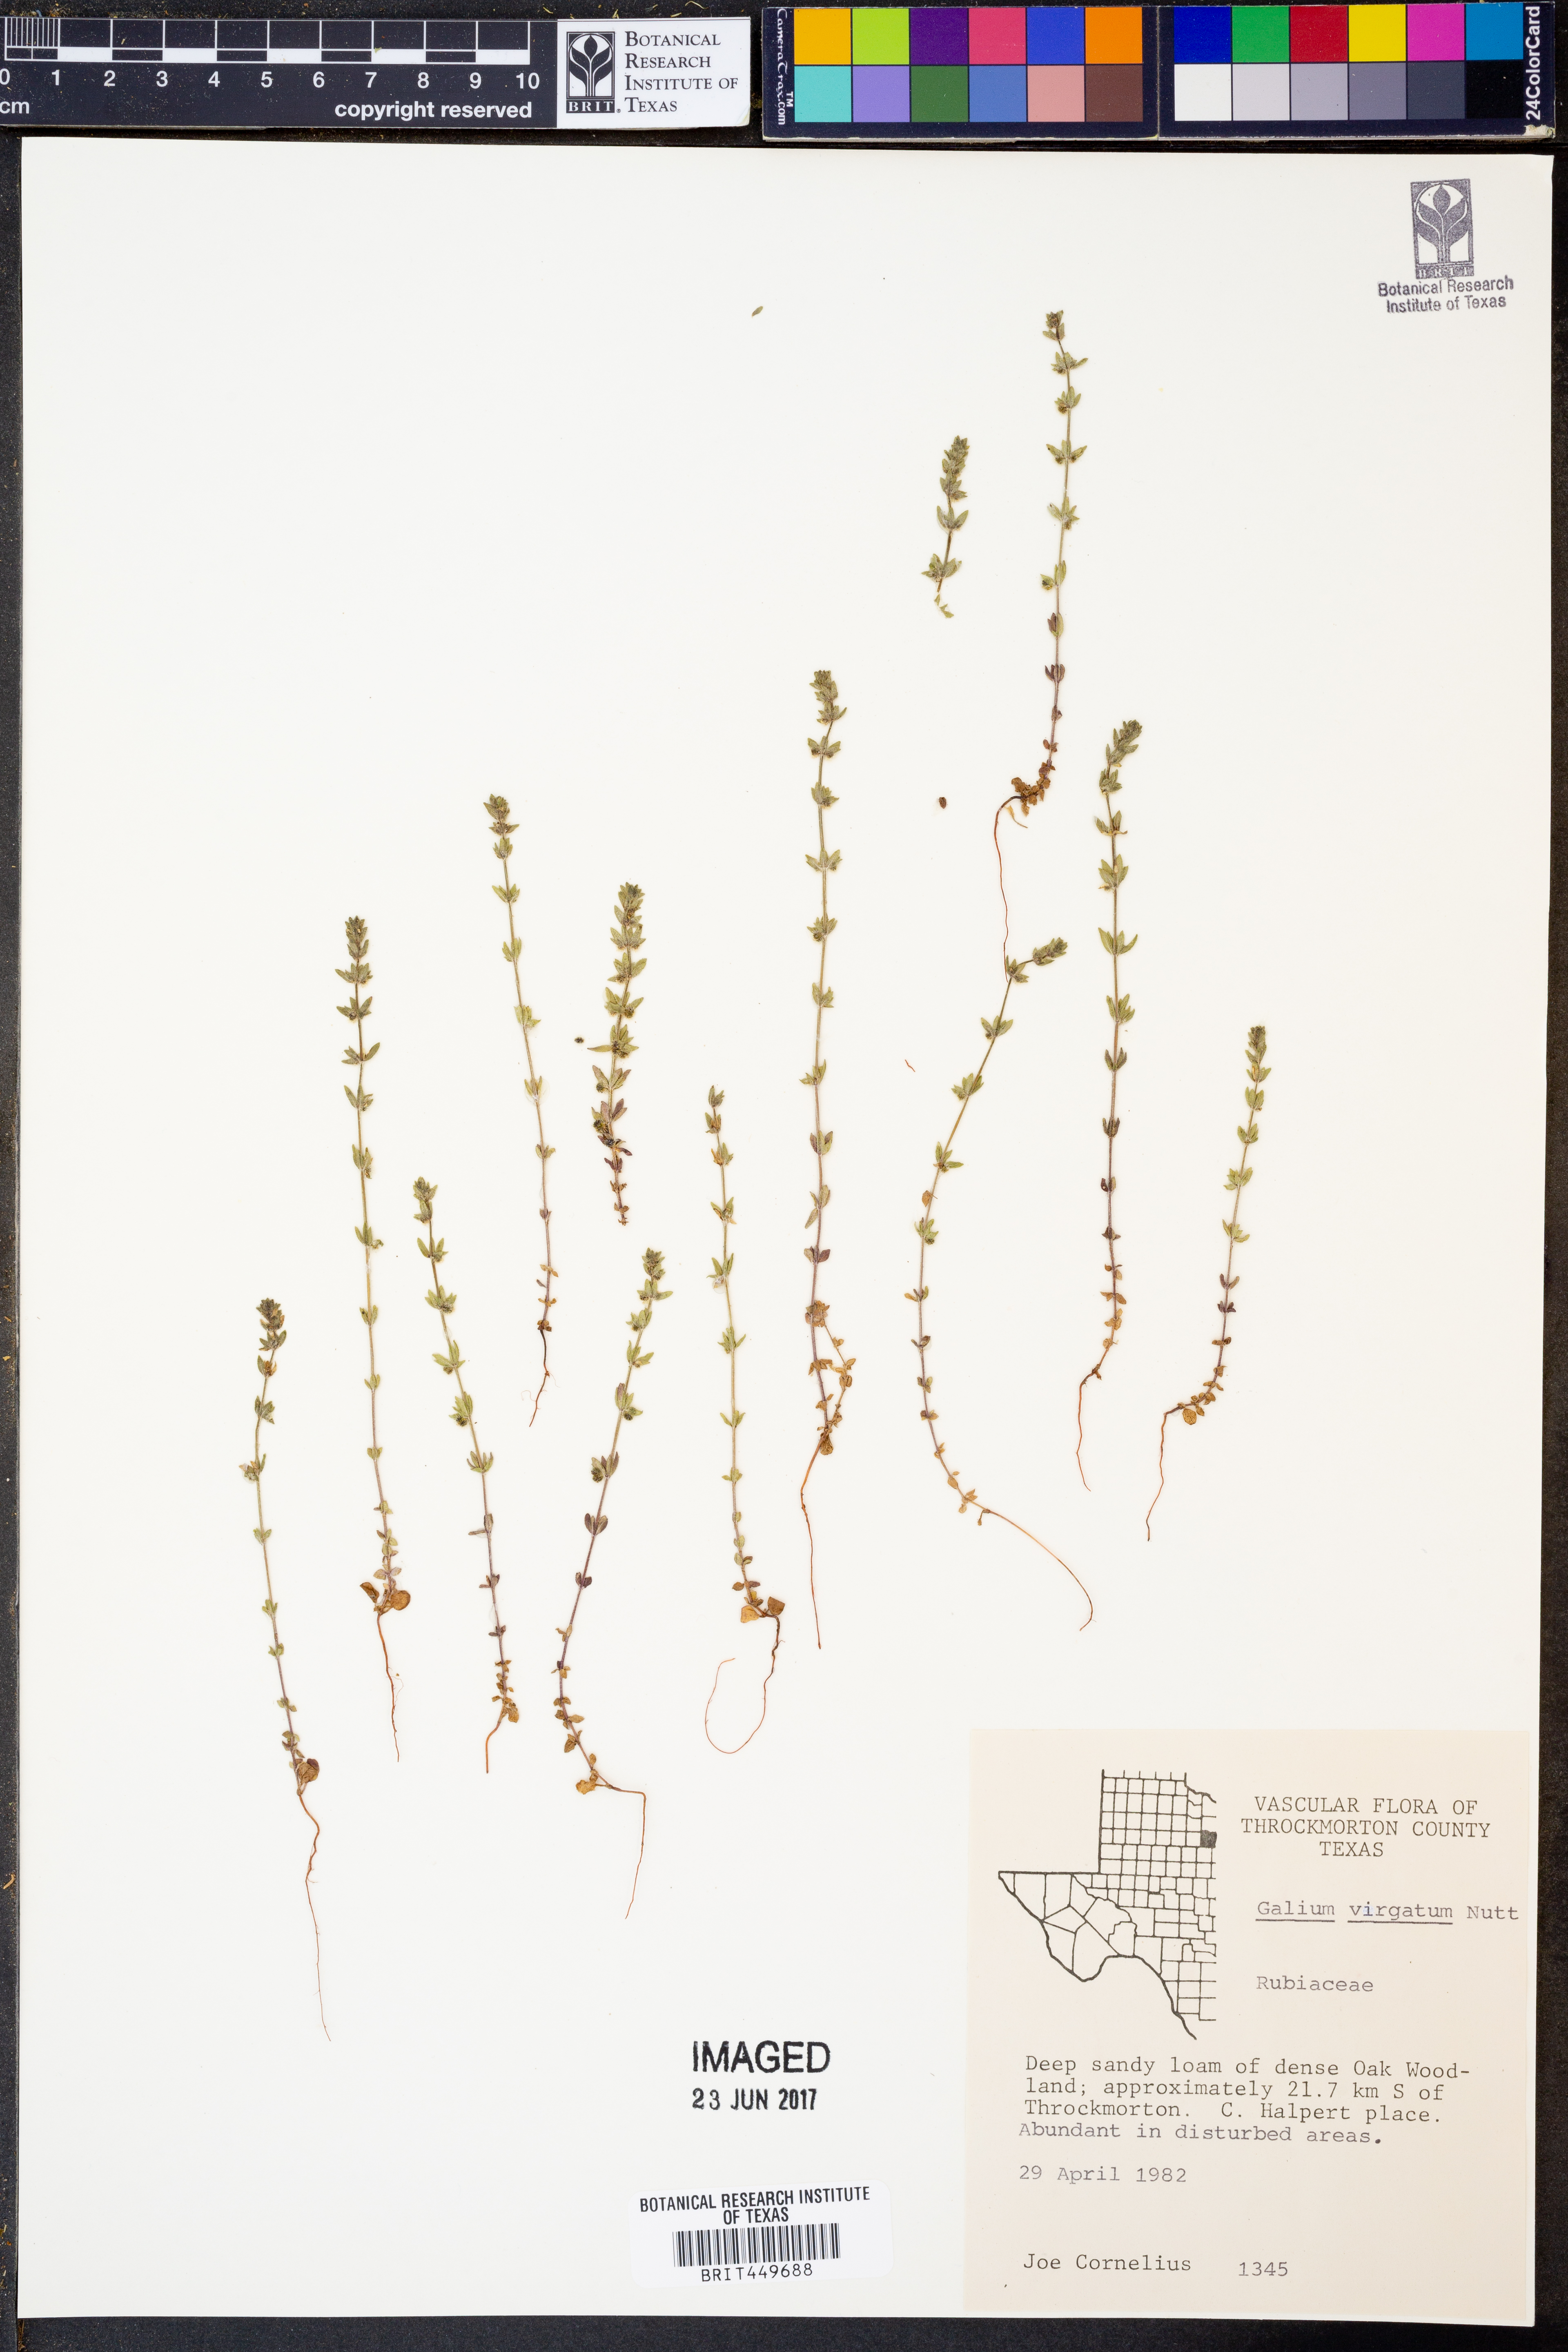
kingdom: Plantae
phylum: Tracheophyta
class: Magnoliopsida
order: Gentianales
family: Rubiaceae
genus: Galium
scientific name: Galium virgatum
